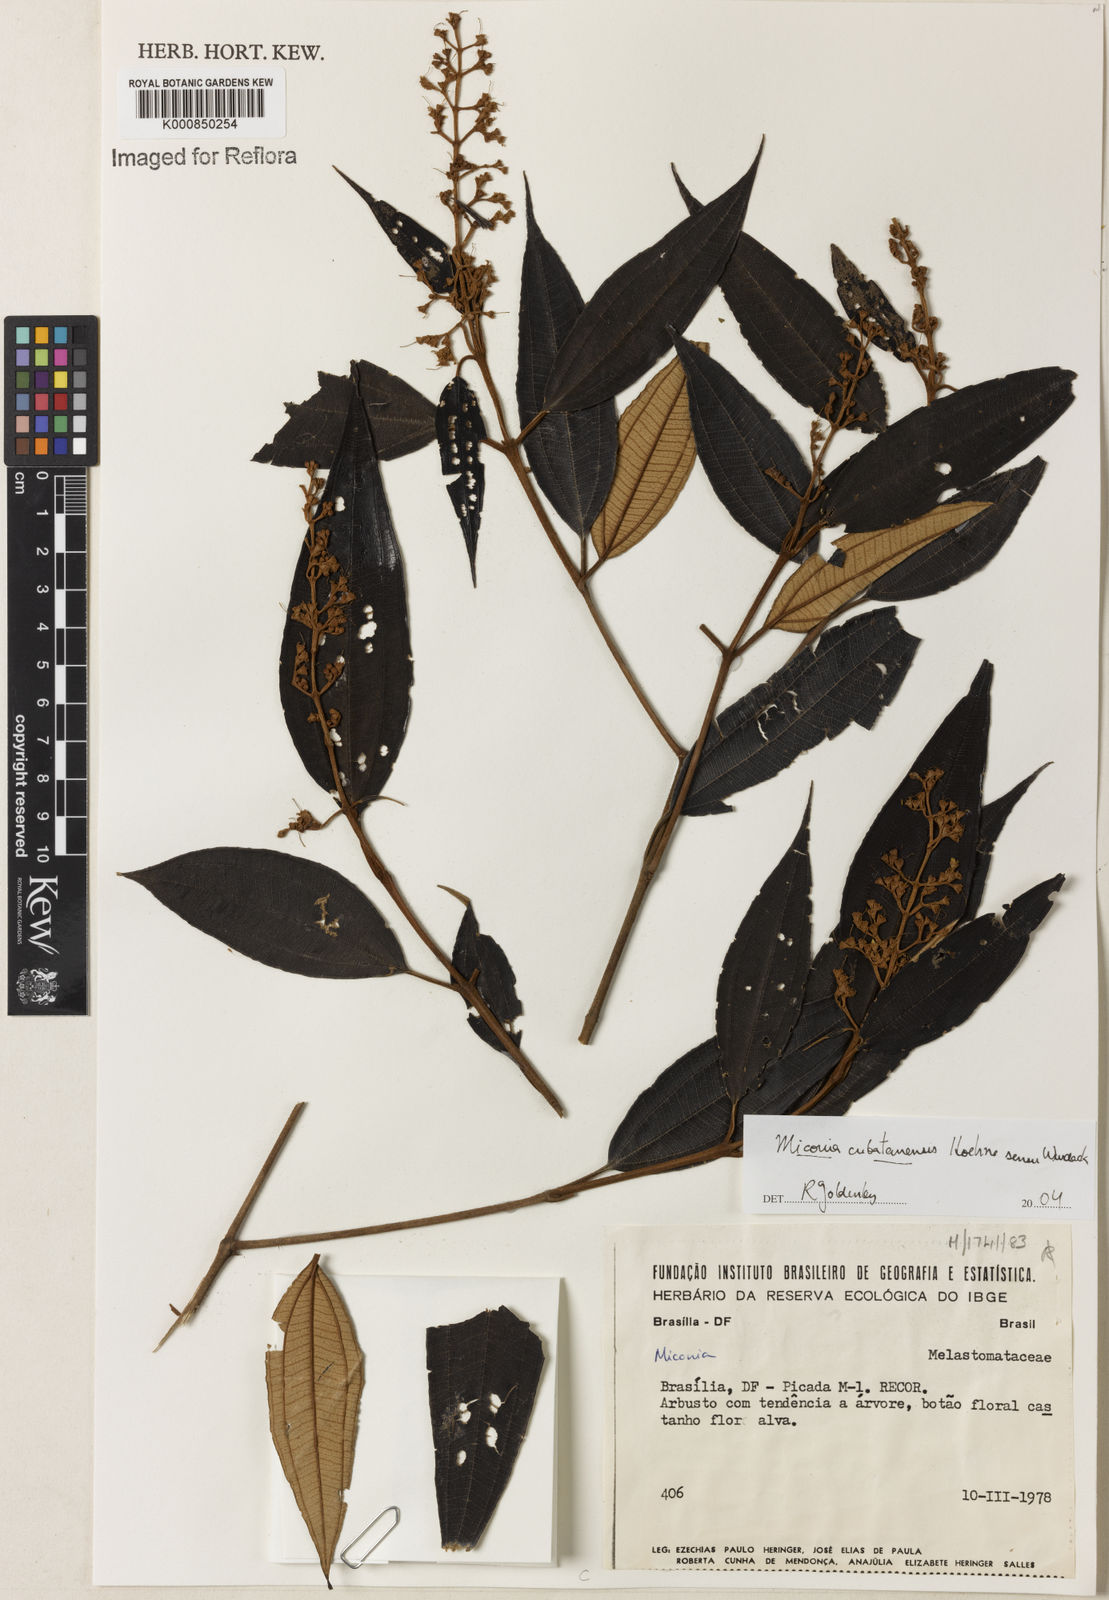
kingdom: Plantae
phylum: Tracheophyta
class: Magnoliopsida
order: Myrtales
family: Melastomataceae
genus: Miconia
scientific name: Miconia cubatanensis
